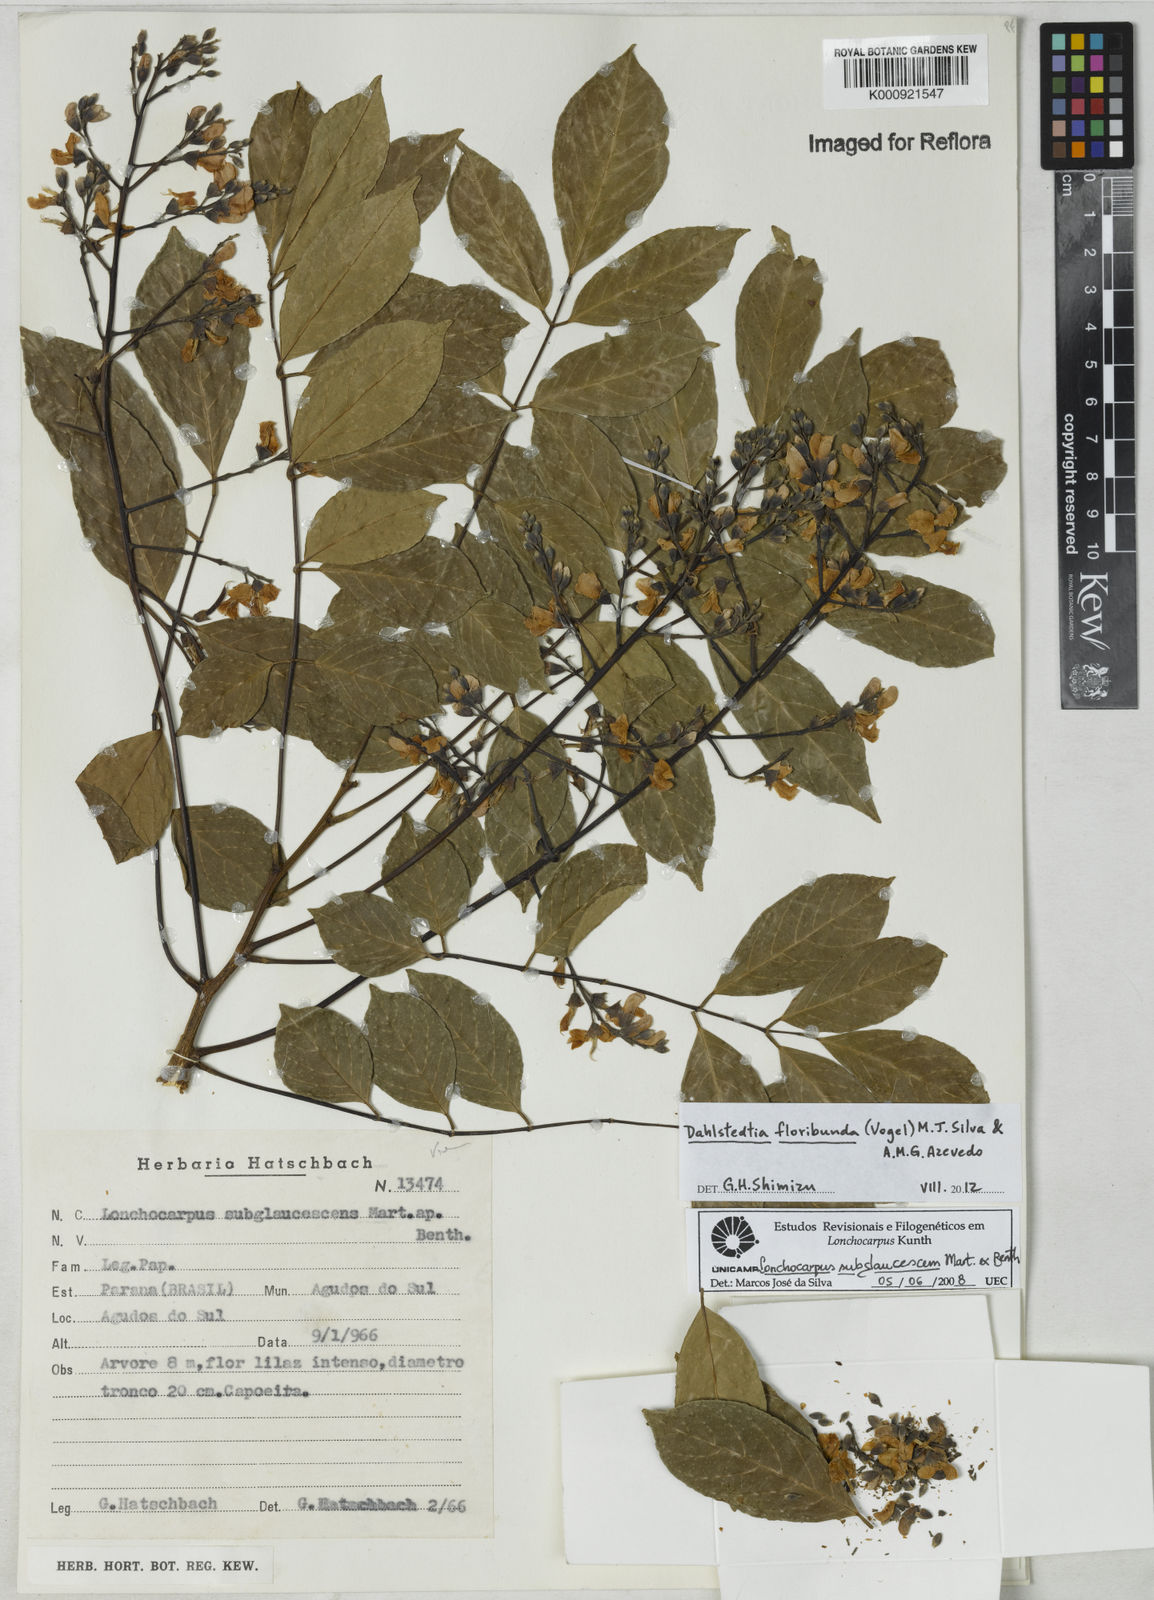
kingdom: Plantae
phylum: Tracheophyta
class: Magnoliopsida
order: Fabales
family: Fabaceae
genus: Dahlstedtia
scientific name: Dahlstedtia floribunda
